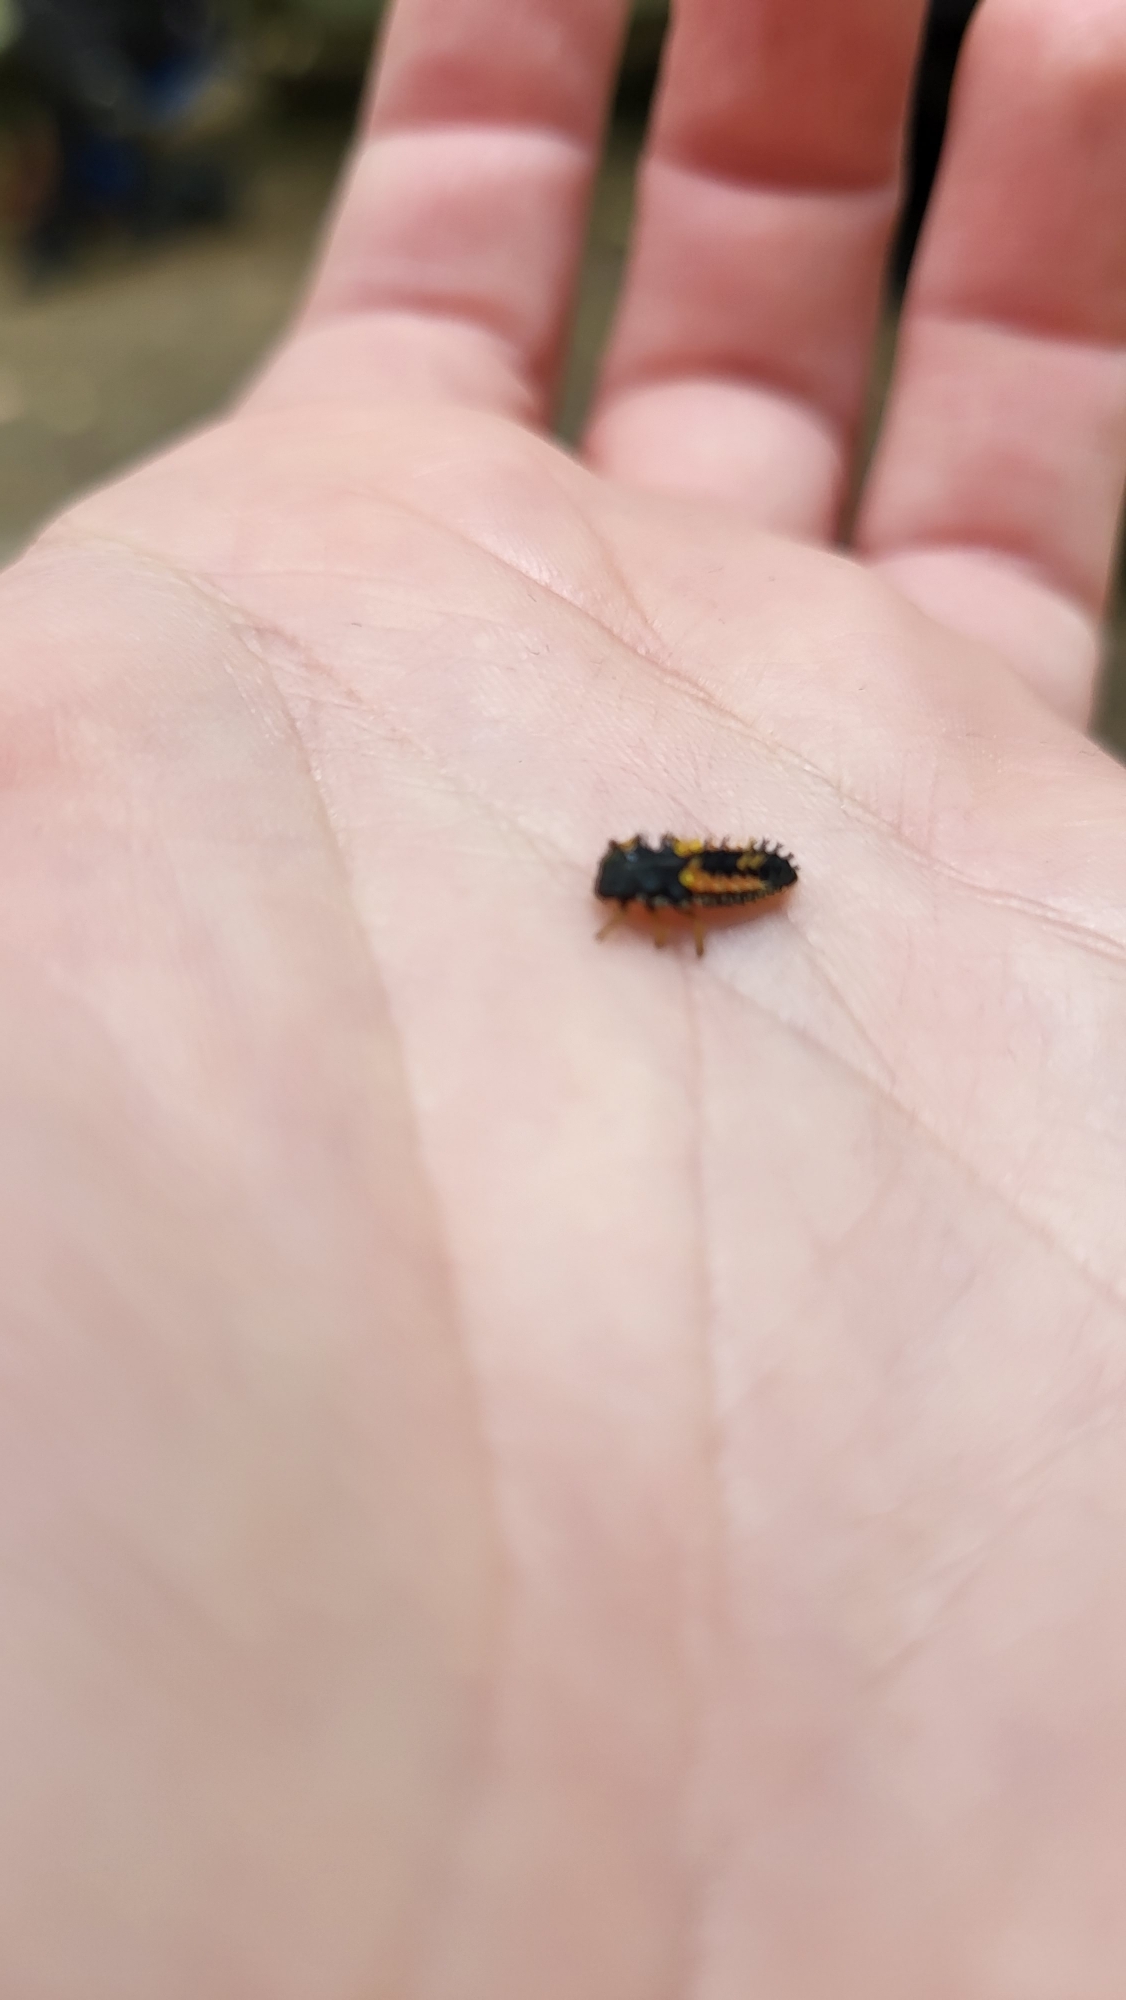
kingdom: Animalia
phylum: Arthropoda
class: Insecta
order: Coleoptera
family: Coccinellidae
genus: Harmonia
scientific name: Harmonia axyridis
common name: Harlekinmariehøne
